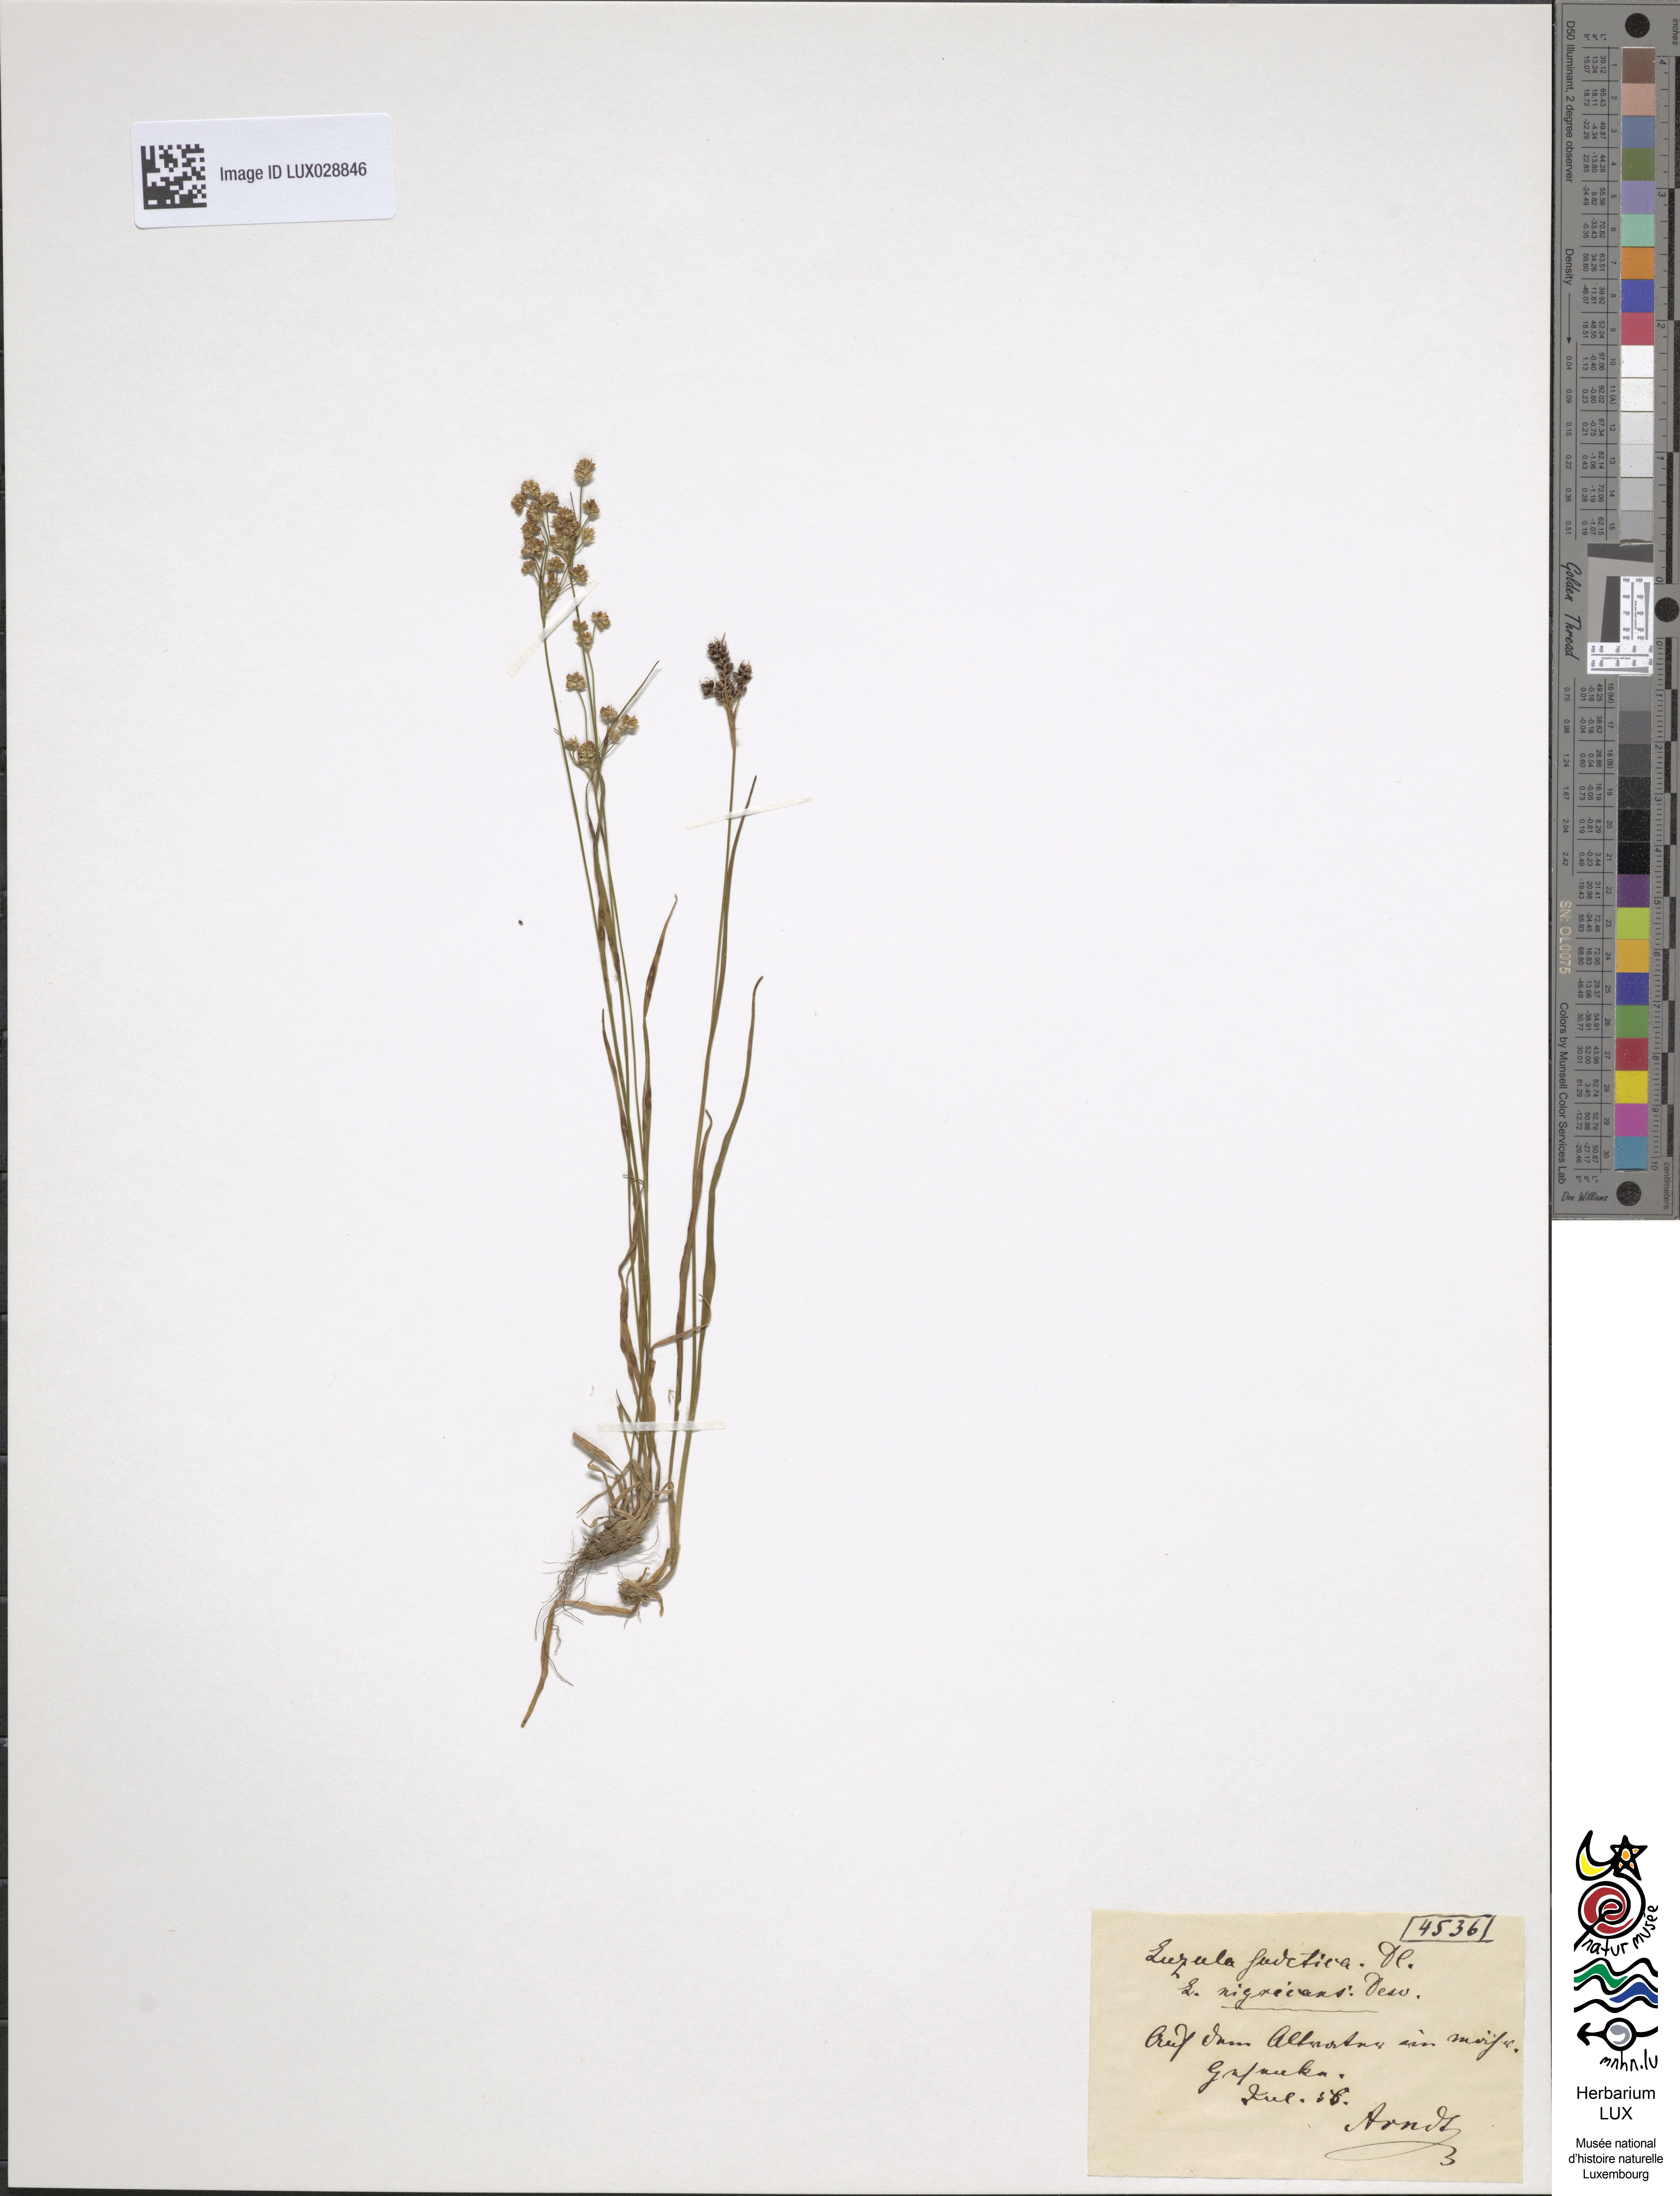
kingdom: Plantae
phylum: Tracheophyta
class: Liliopsida
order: Poales
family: Juncaceae
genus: Luzula
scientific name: Luzula sudetica
